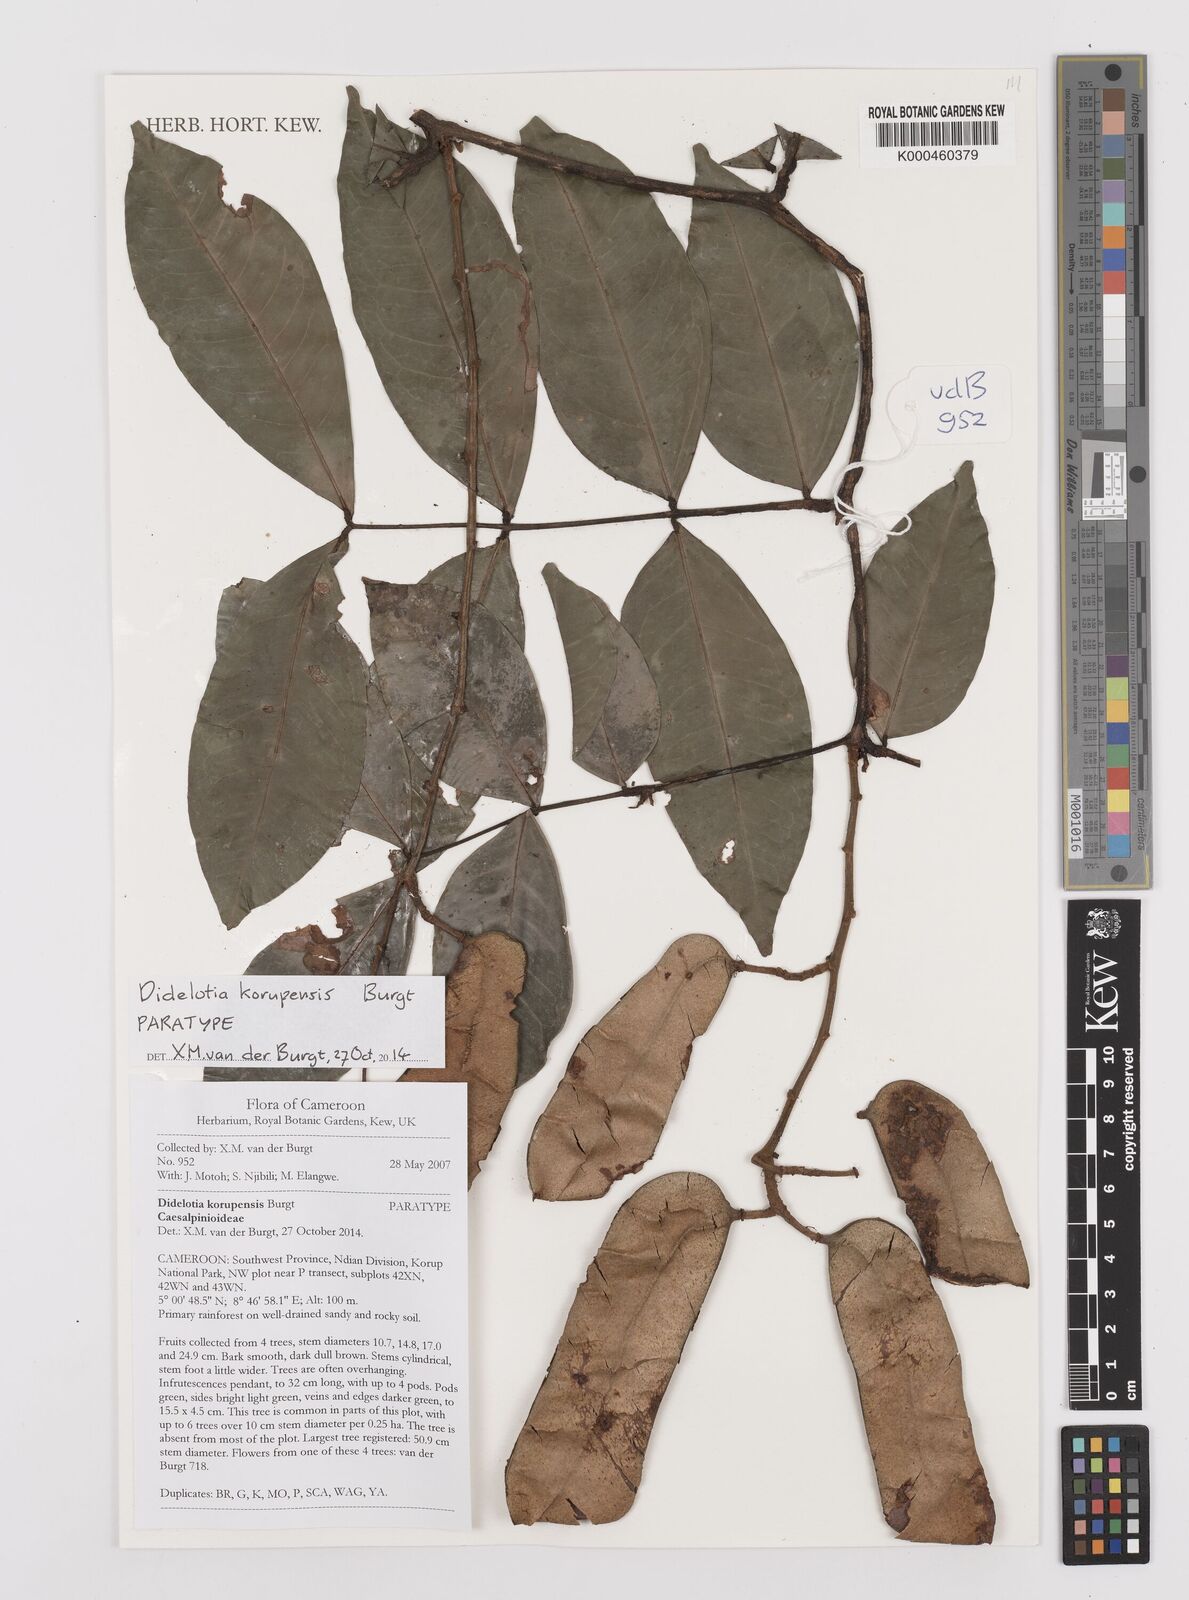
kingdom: Plantae
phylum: Tracheophyta
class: Magnoliopsida
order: Fabales
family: Fabaceae
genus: Didelotia
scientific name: Didelotia afzelii
